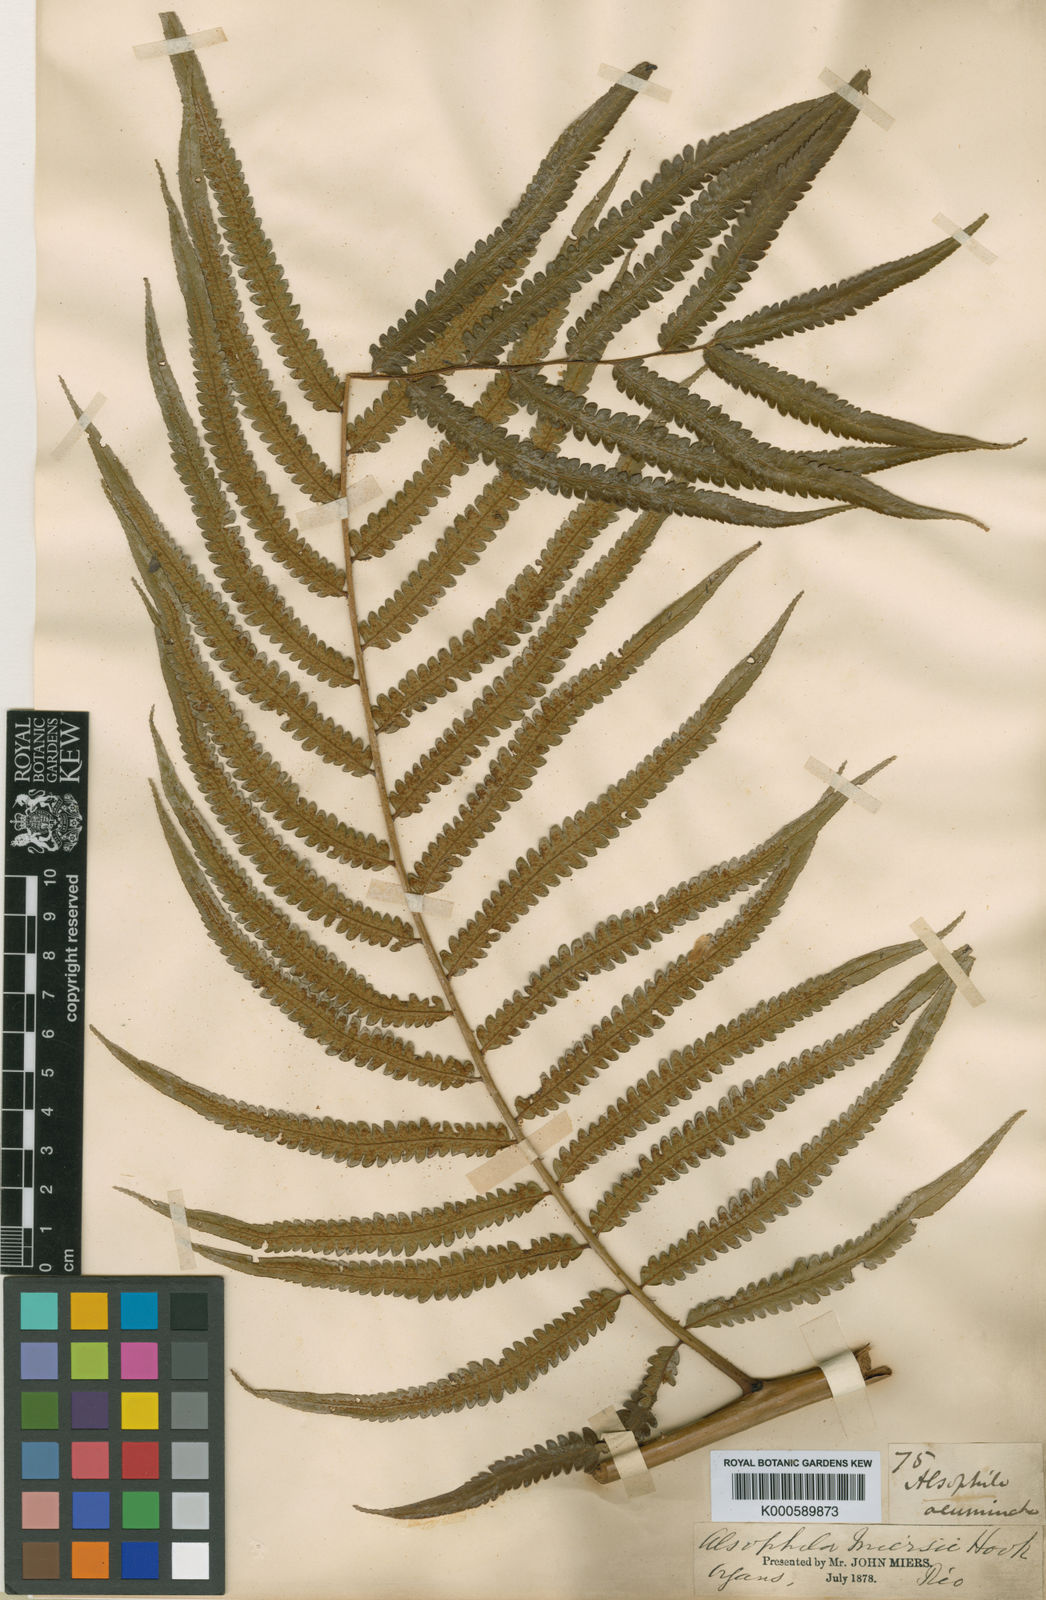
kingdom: Plantae
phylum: Tracheophyta
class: Polypodiopsida
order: Cyatheales
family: Cyatheaceae
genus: Cyathea
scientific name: Cyathea miersii
